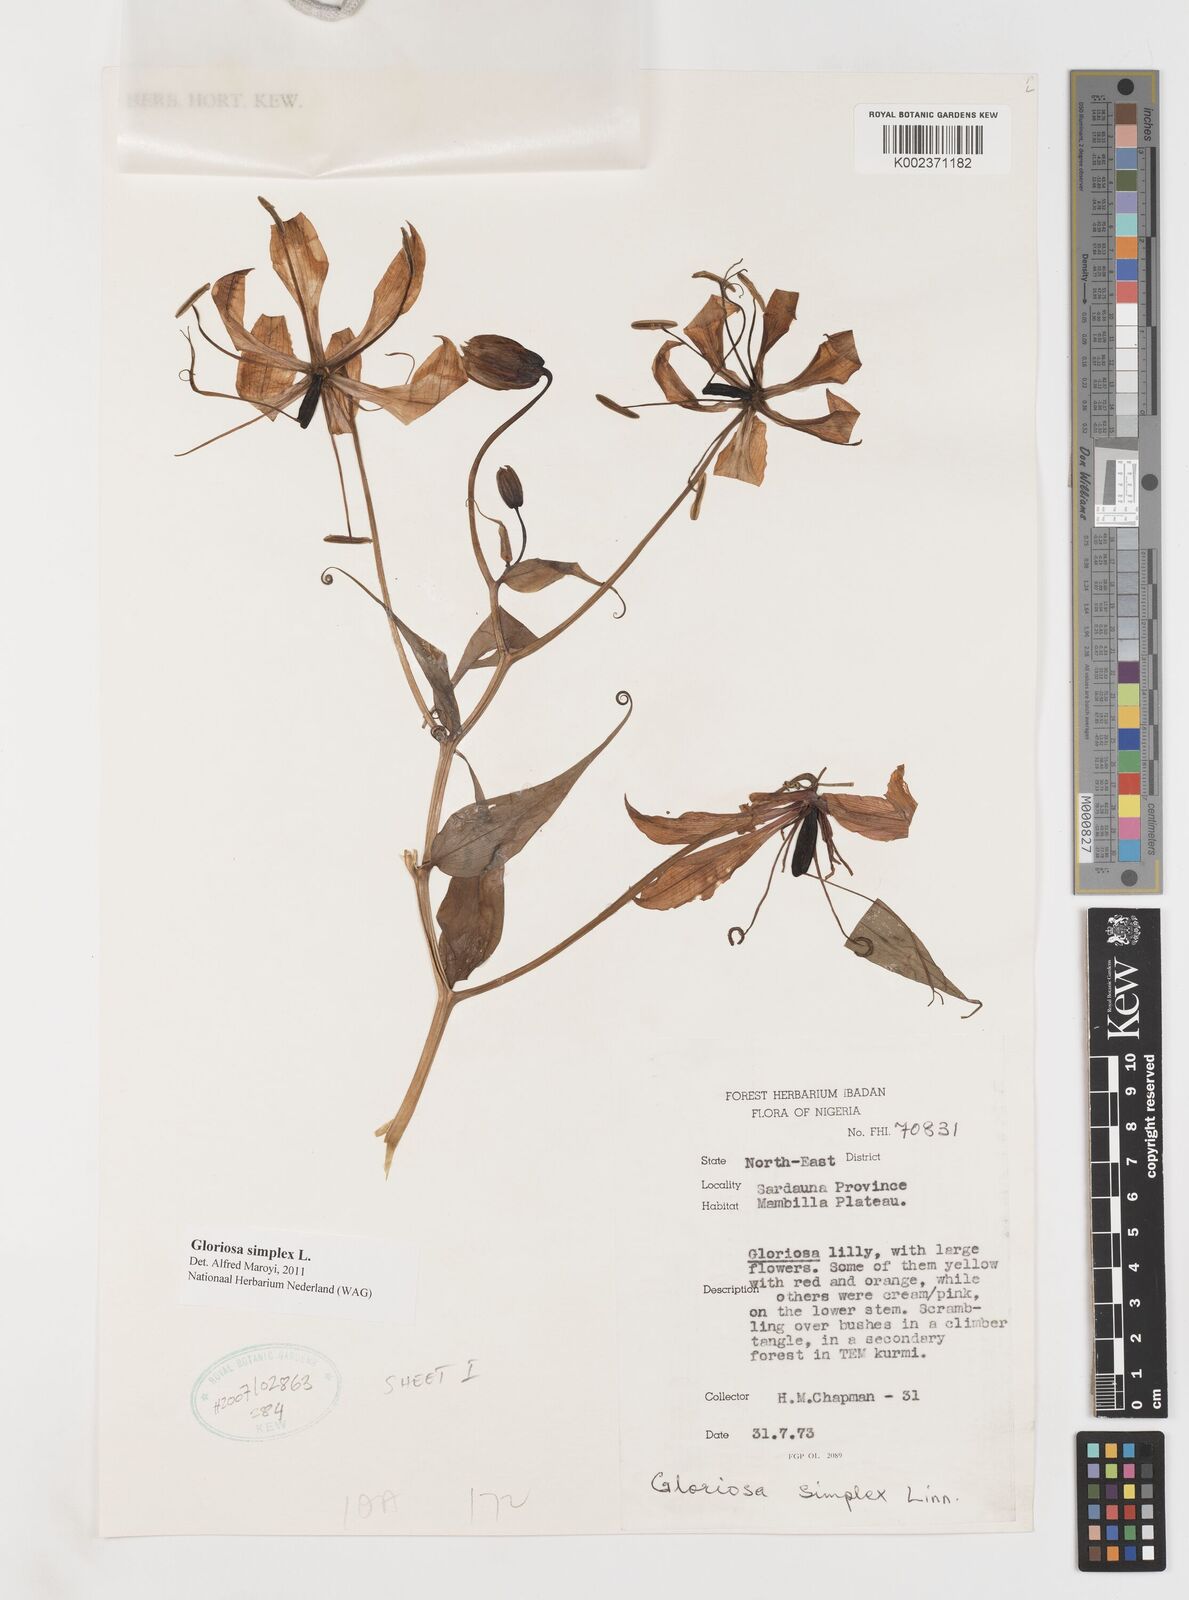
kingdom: Plantae
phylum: Tracheophyta
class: Liliopsida
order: Liliales
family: Colchicaceae
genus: Gloriosa
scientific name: Gloriosa simplex
